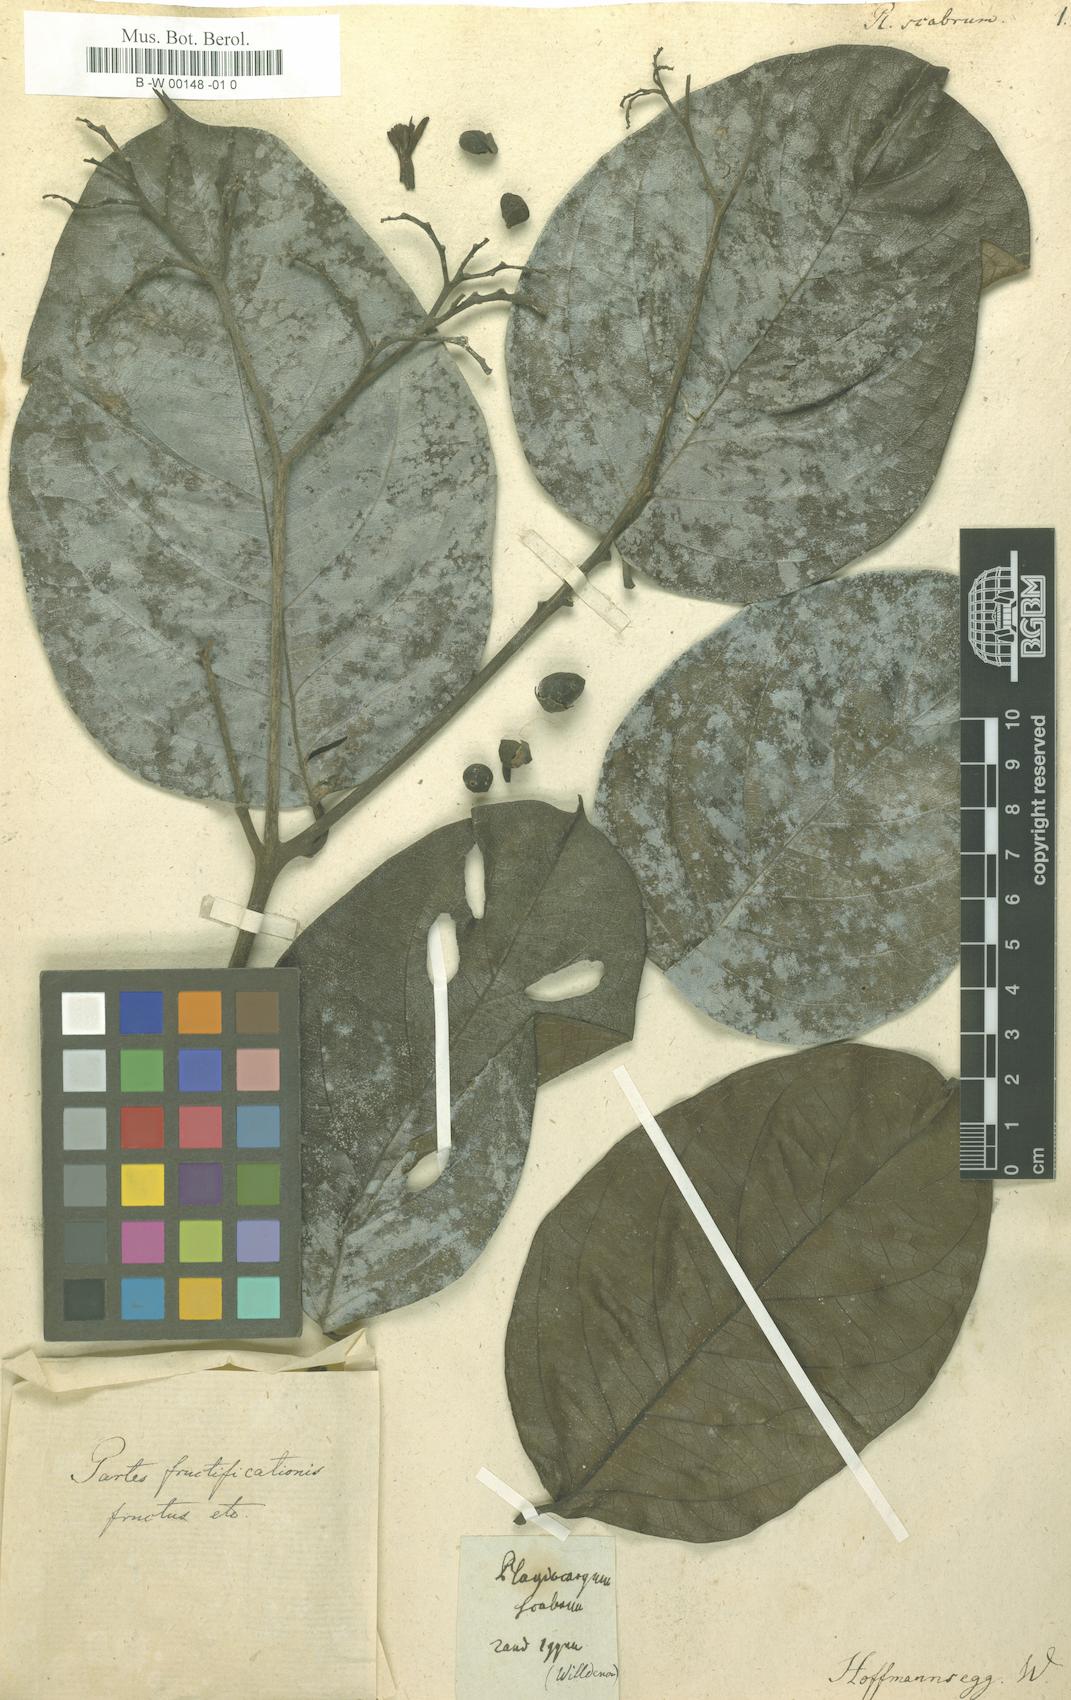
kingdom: Plantae
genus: Plagiocaryum
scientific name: Plagiocaryum scabrum
